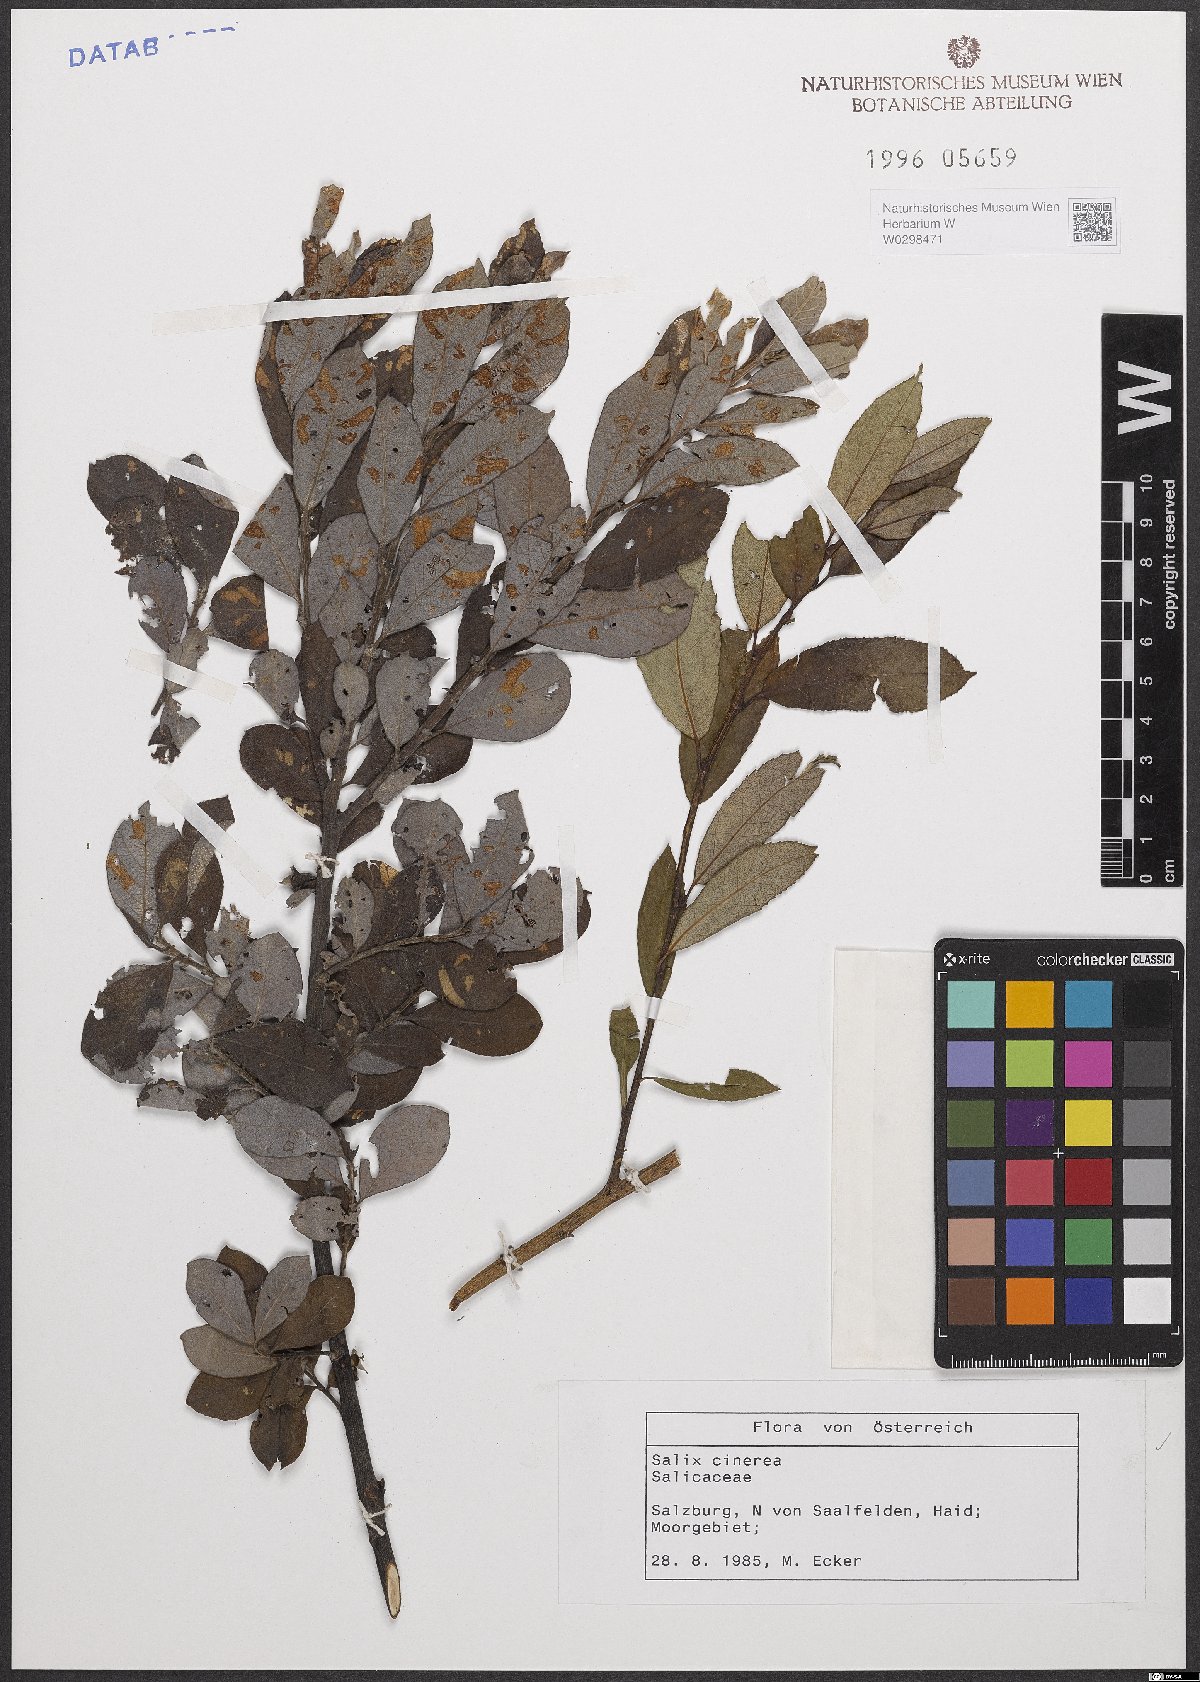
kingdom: Plantae
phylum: Tracheophyta
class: Magnoliopsida
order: Malpighiales
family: Salicaceae
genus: Salix
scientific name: Salix cinerea
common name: Common sallow
